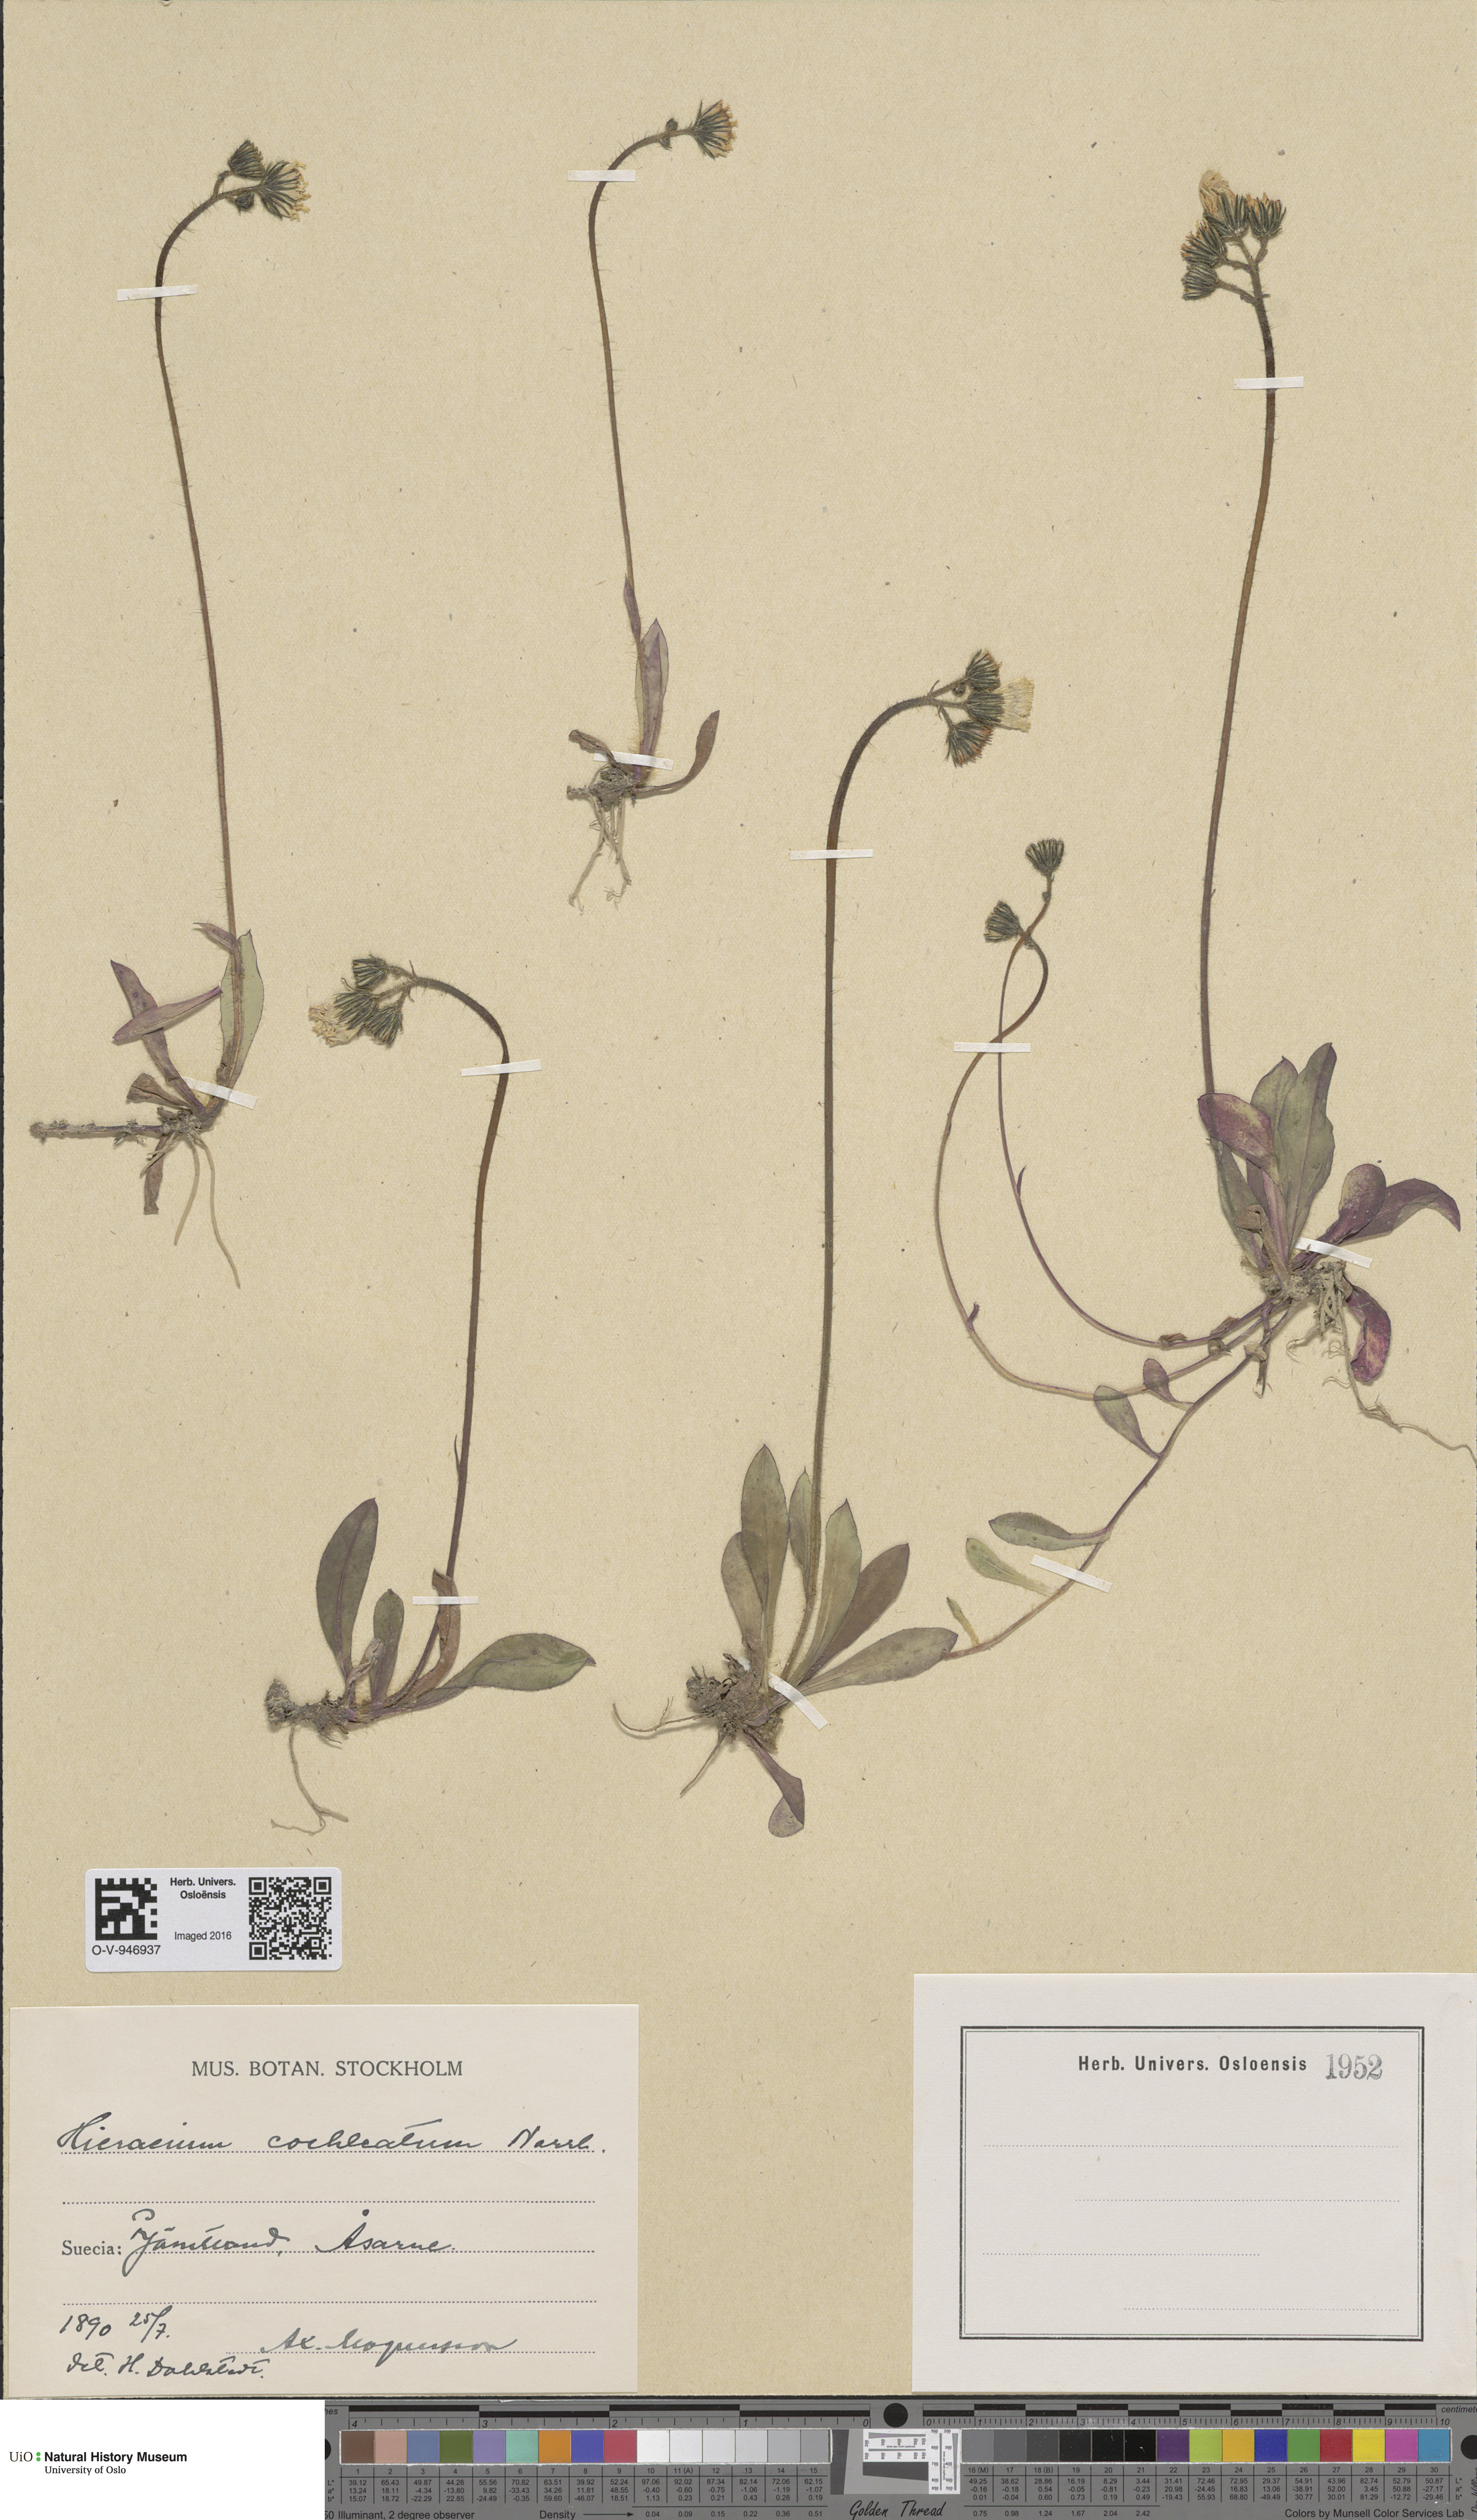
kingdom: Plantae
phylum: Tracheophyta
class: Magnoliopsida
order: Asterales
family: Asteraceae
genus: Pilosella
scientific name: Pilosella floribunda
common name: Glaucous hawkweed
